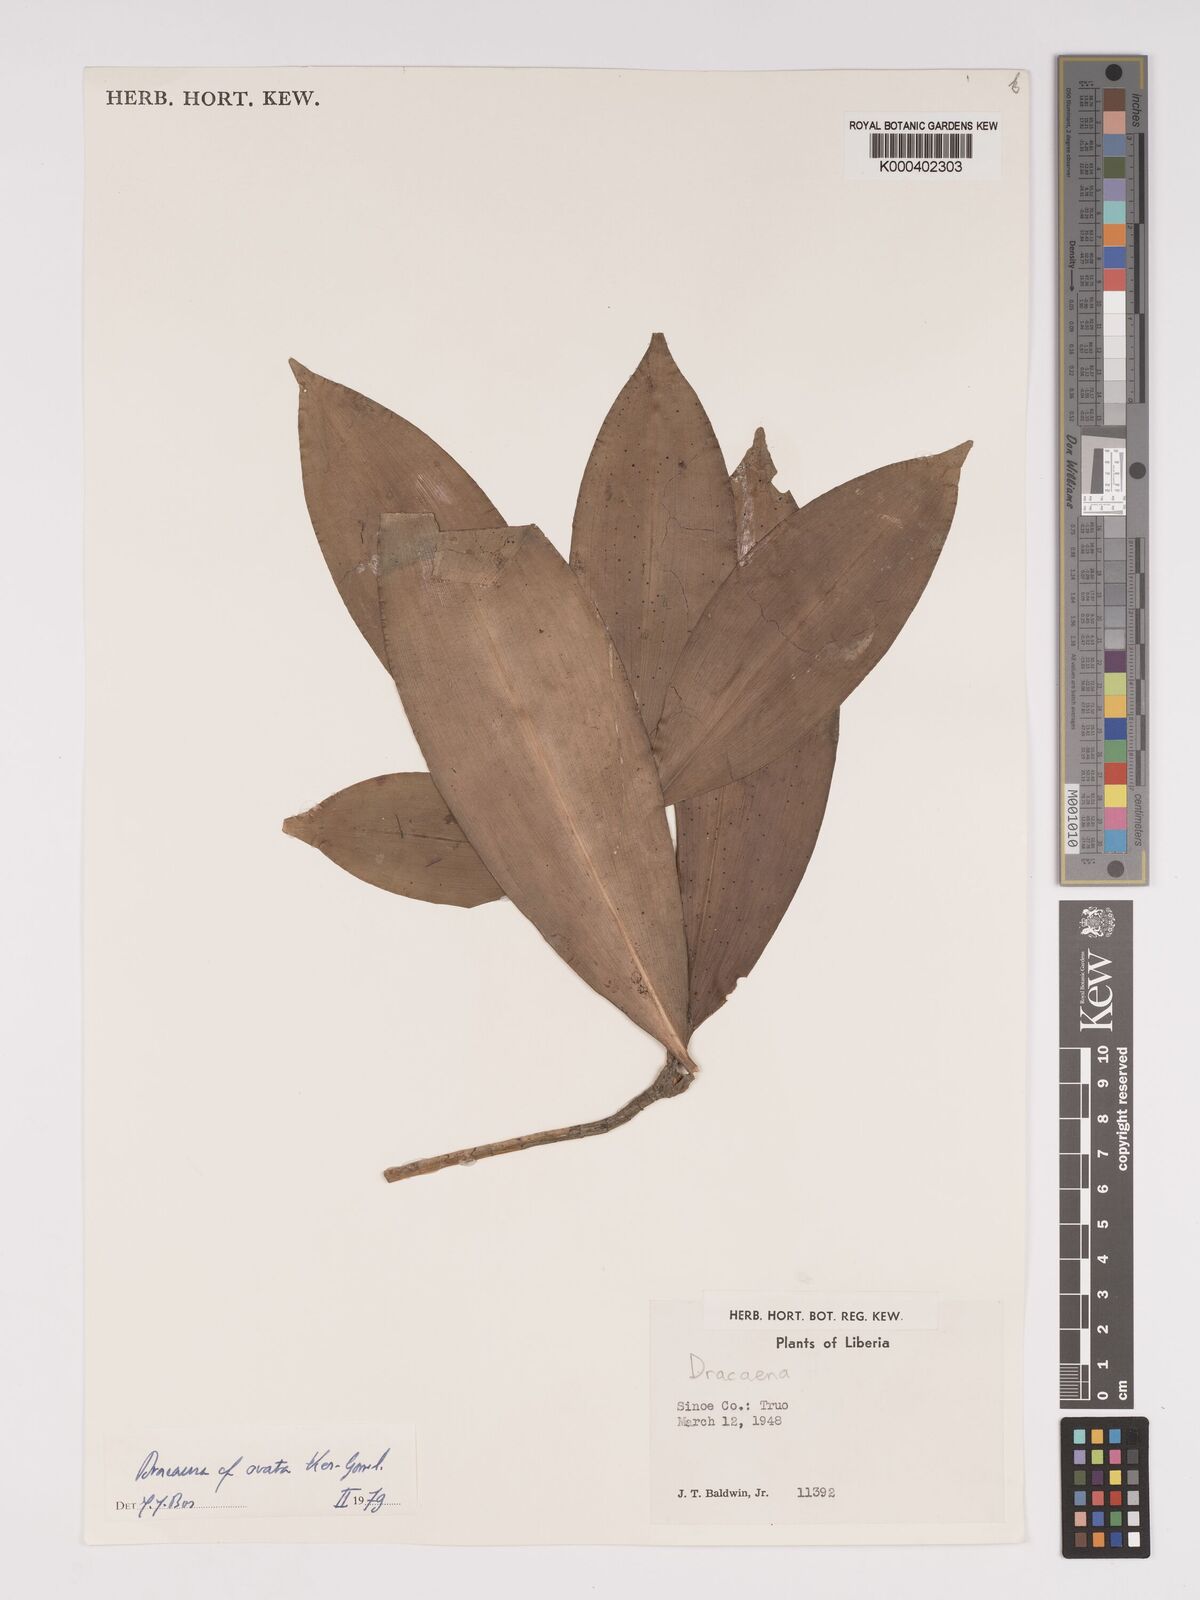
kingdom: Plantae
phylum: Tracheophyta
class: Liliopsida
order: Asparagales
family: Asparagaceae
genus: Dracaena
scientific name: Dracaena ovata
